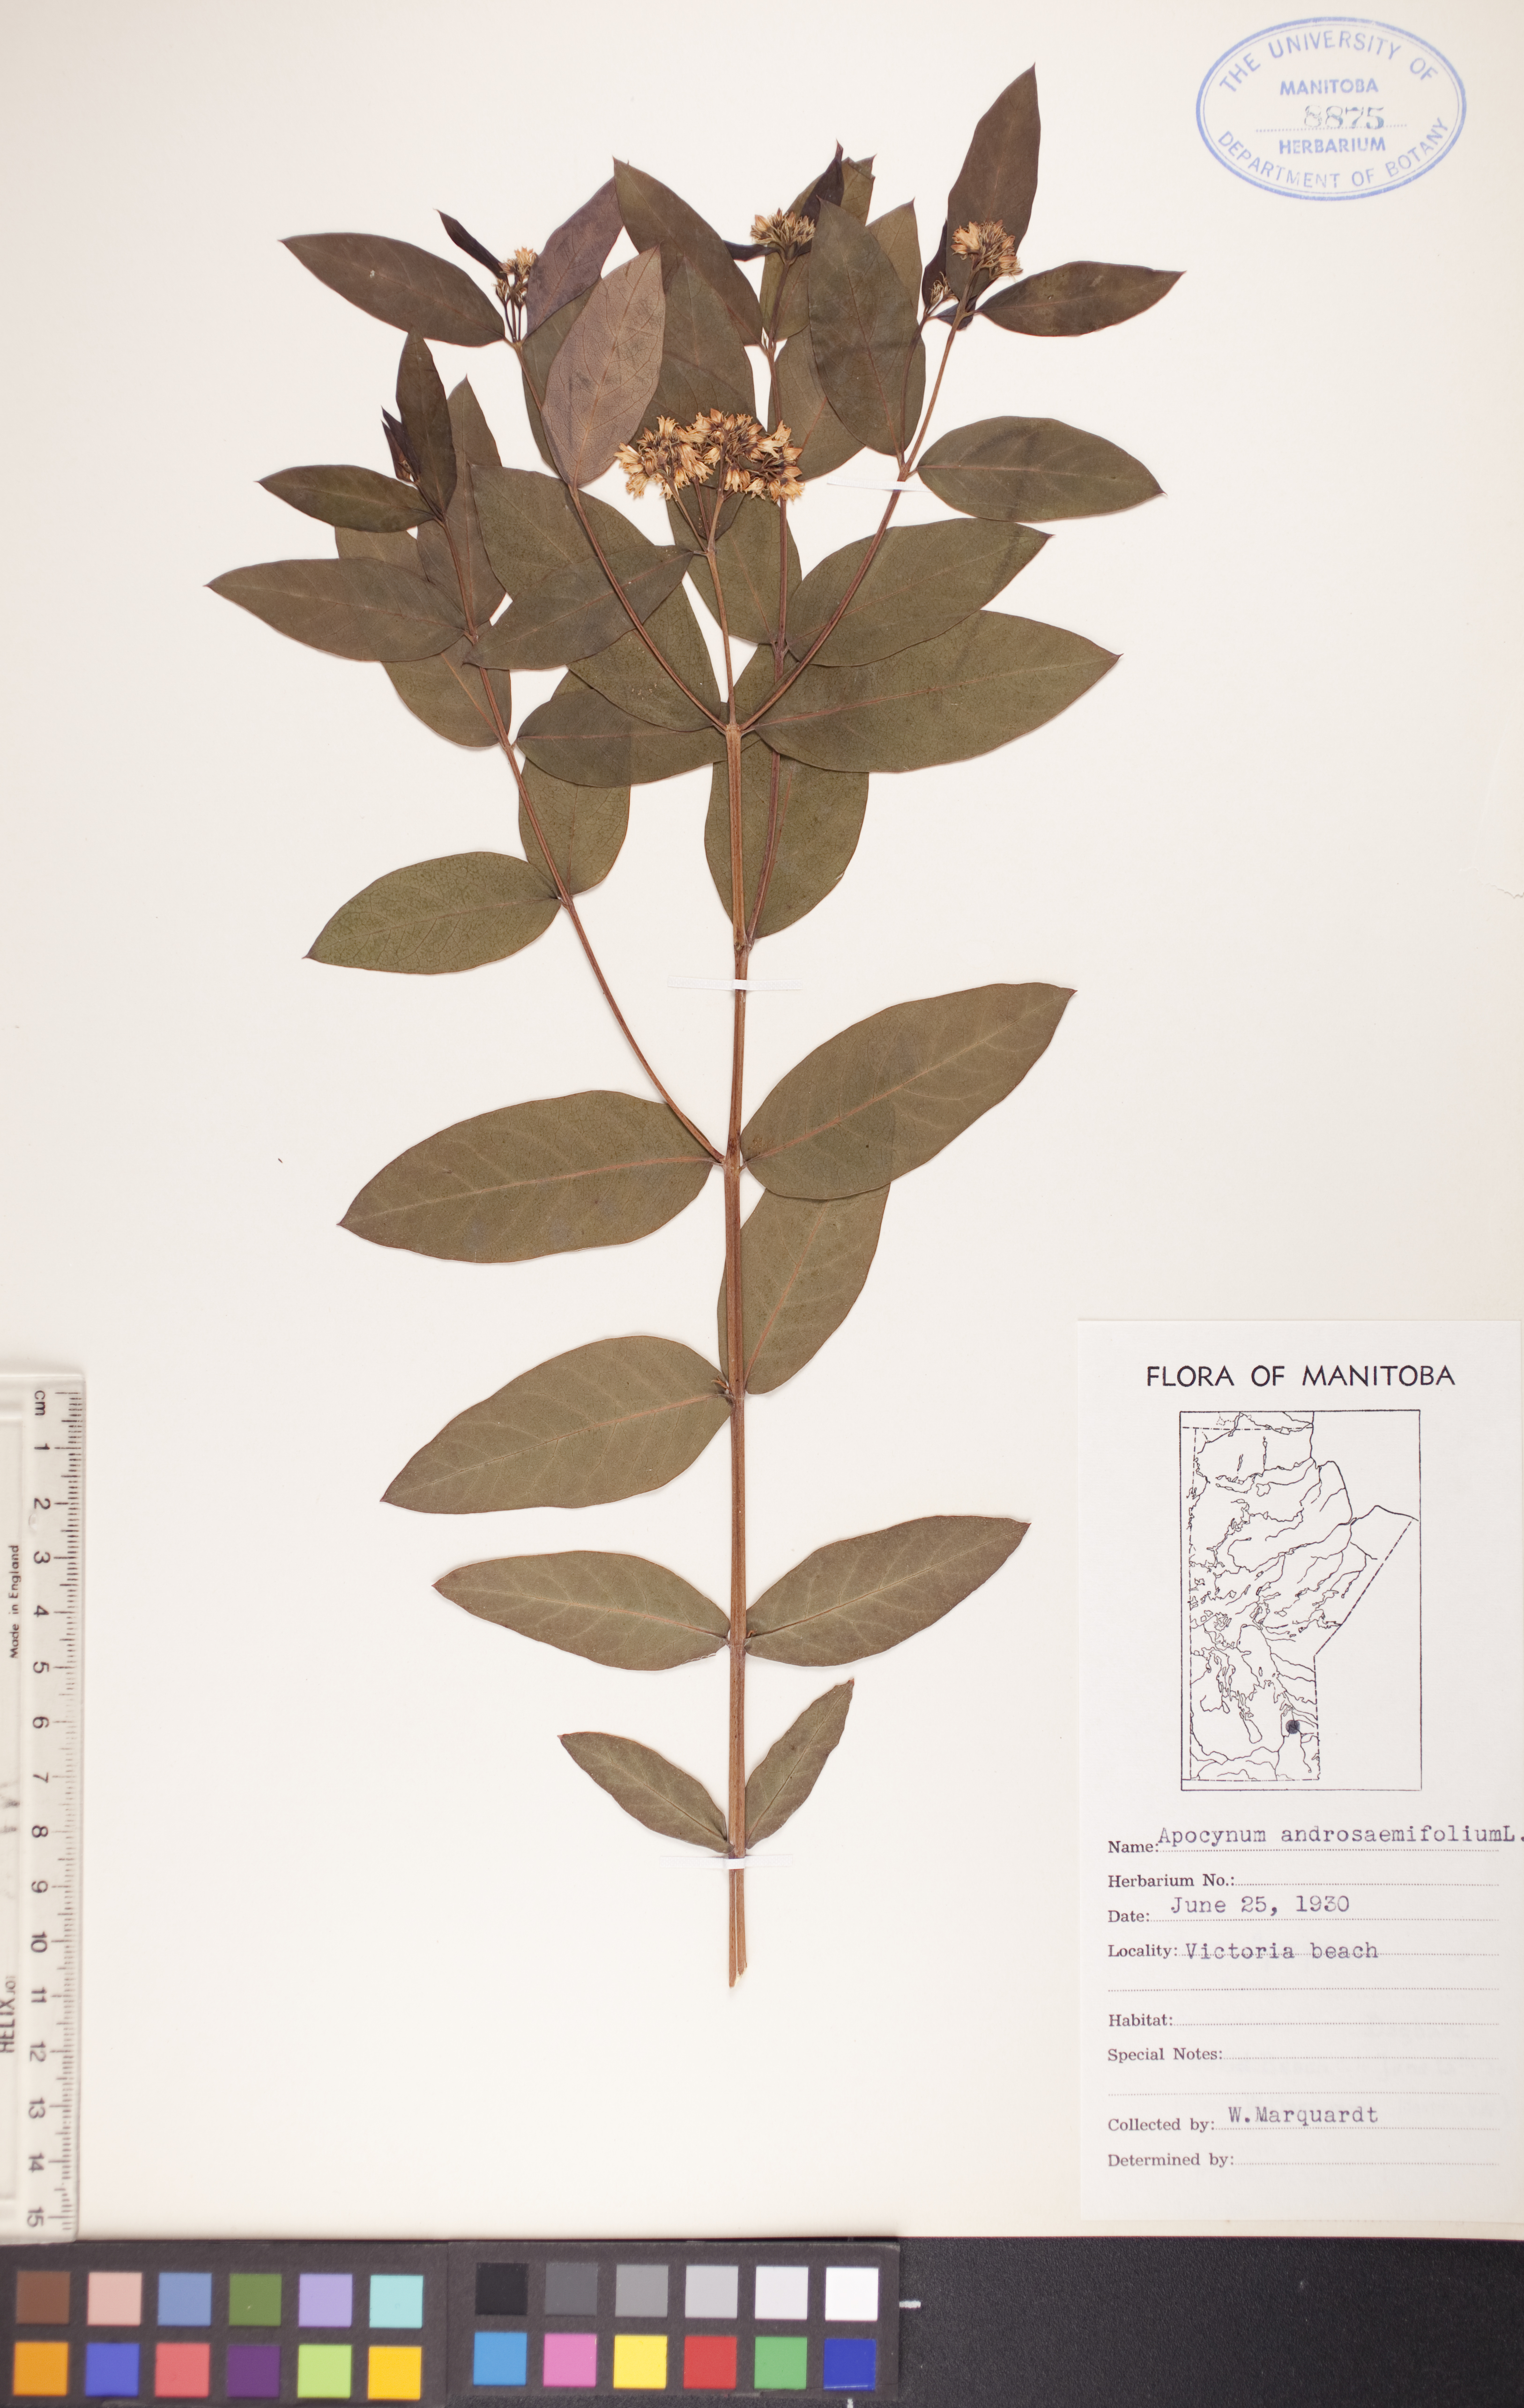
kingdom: Plantae
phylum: Tracheophyta
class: Magnoliopsida
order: Gentianales
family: Apocynaceae
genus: Apocynum
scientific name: Apocynum androsaemifolium
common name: Spreading dogbane
